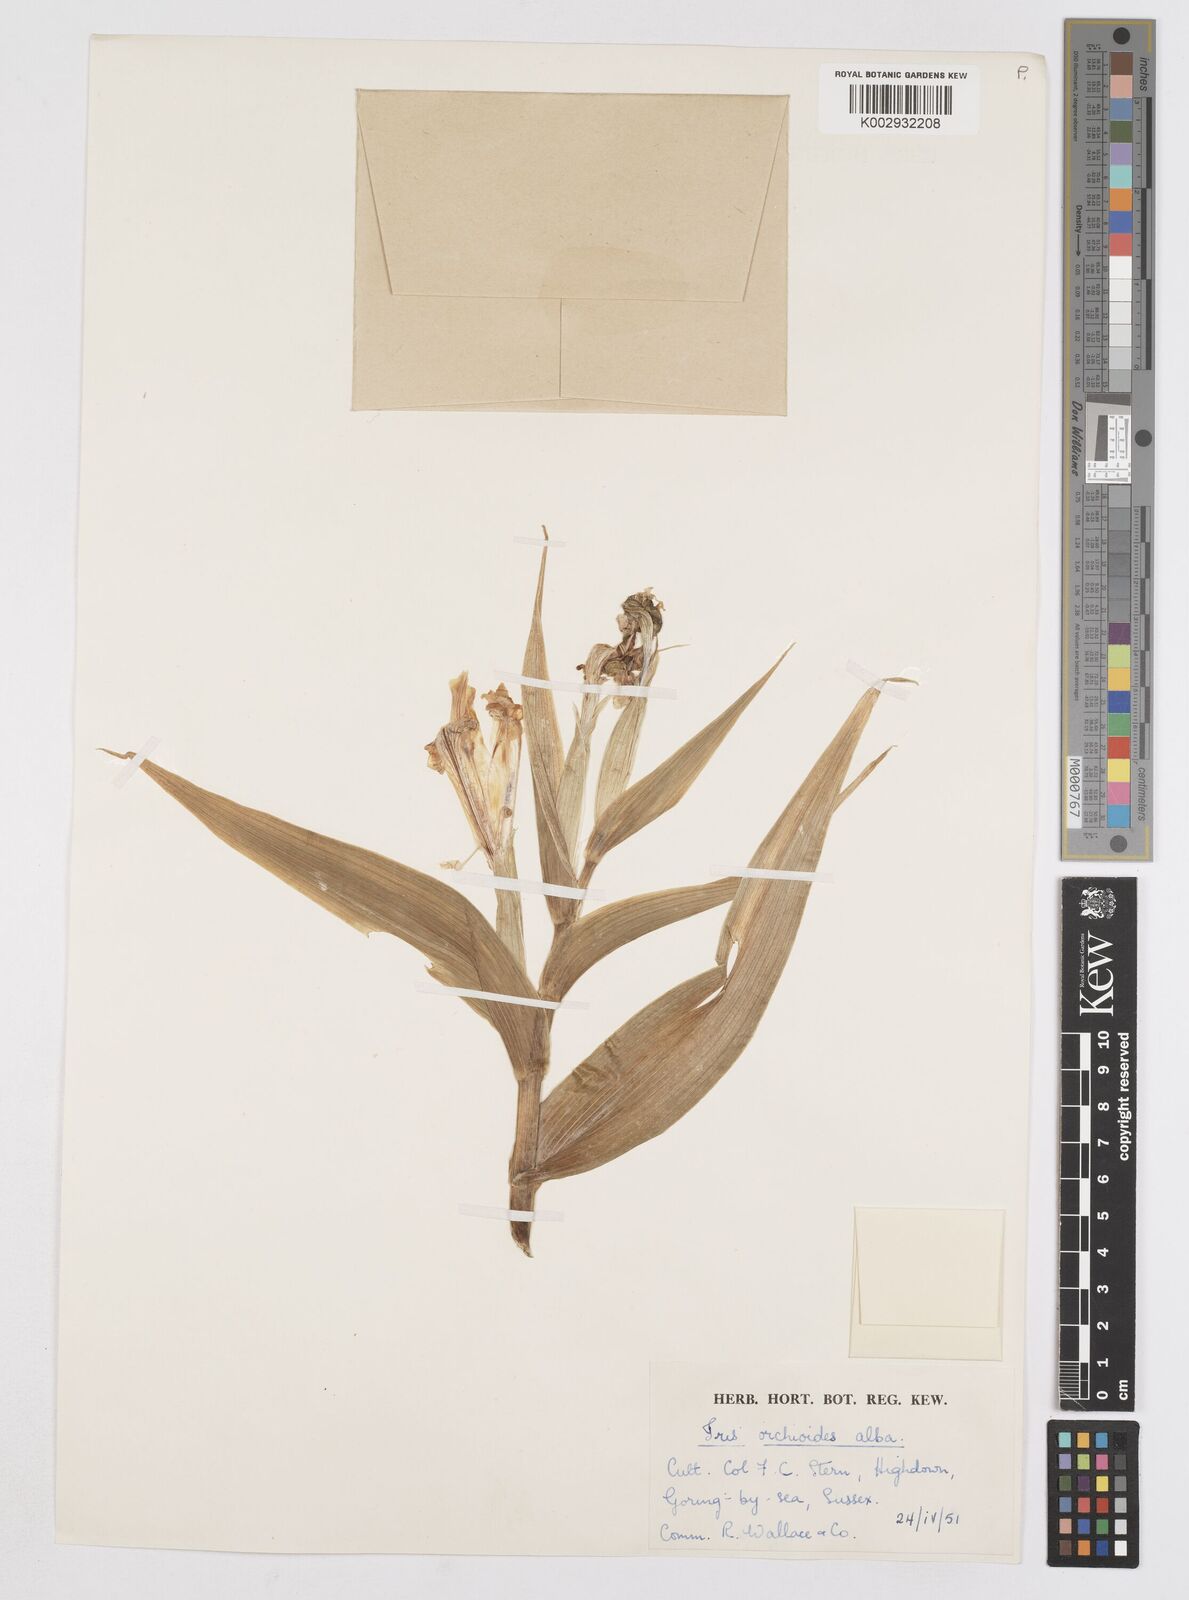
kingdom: Plantae
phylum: Tracheophyta
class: Liliopsida
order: Asparagales
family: Iridaceae
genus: Iris
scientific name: Iris orchioides
